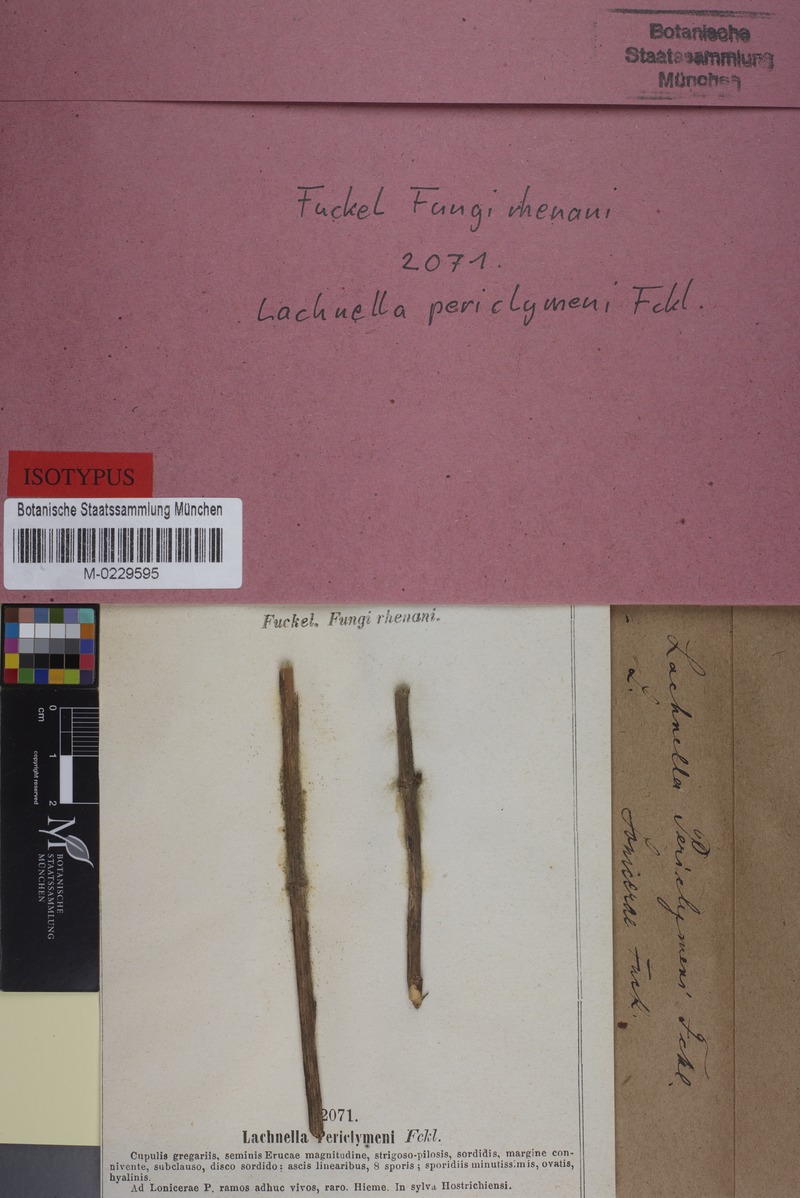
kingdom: Fungi
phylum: Basidiomycota
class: Agaricomycetes
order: Agaricales
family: Niaceae
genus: Lachnella
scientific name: Lachnella
